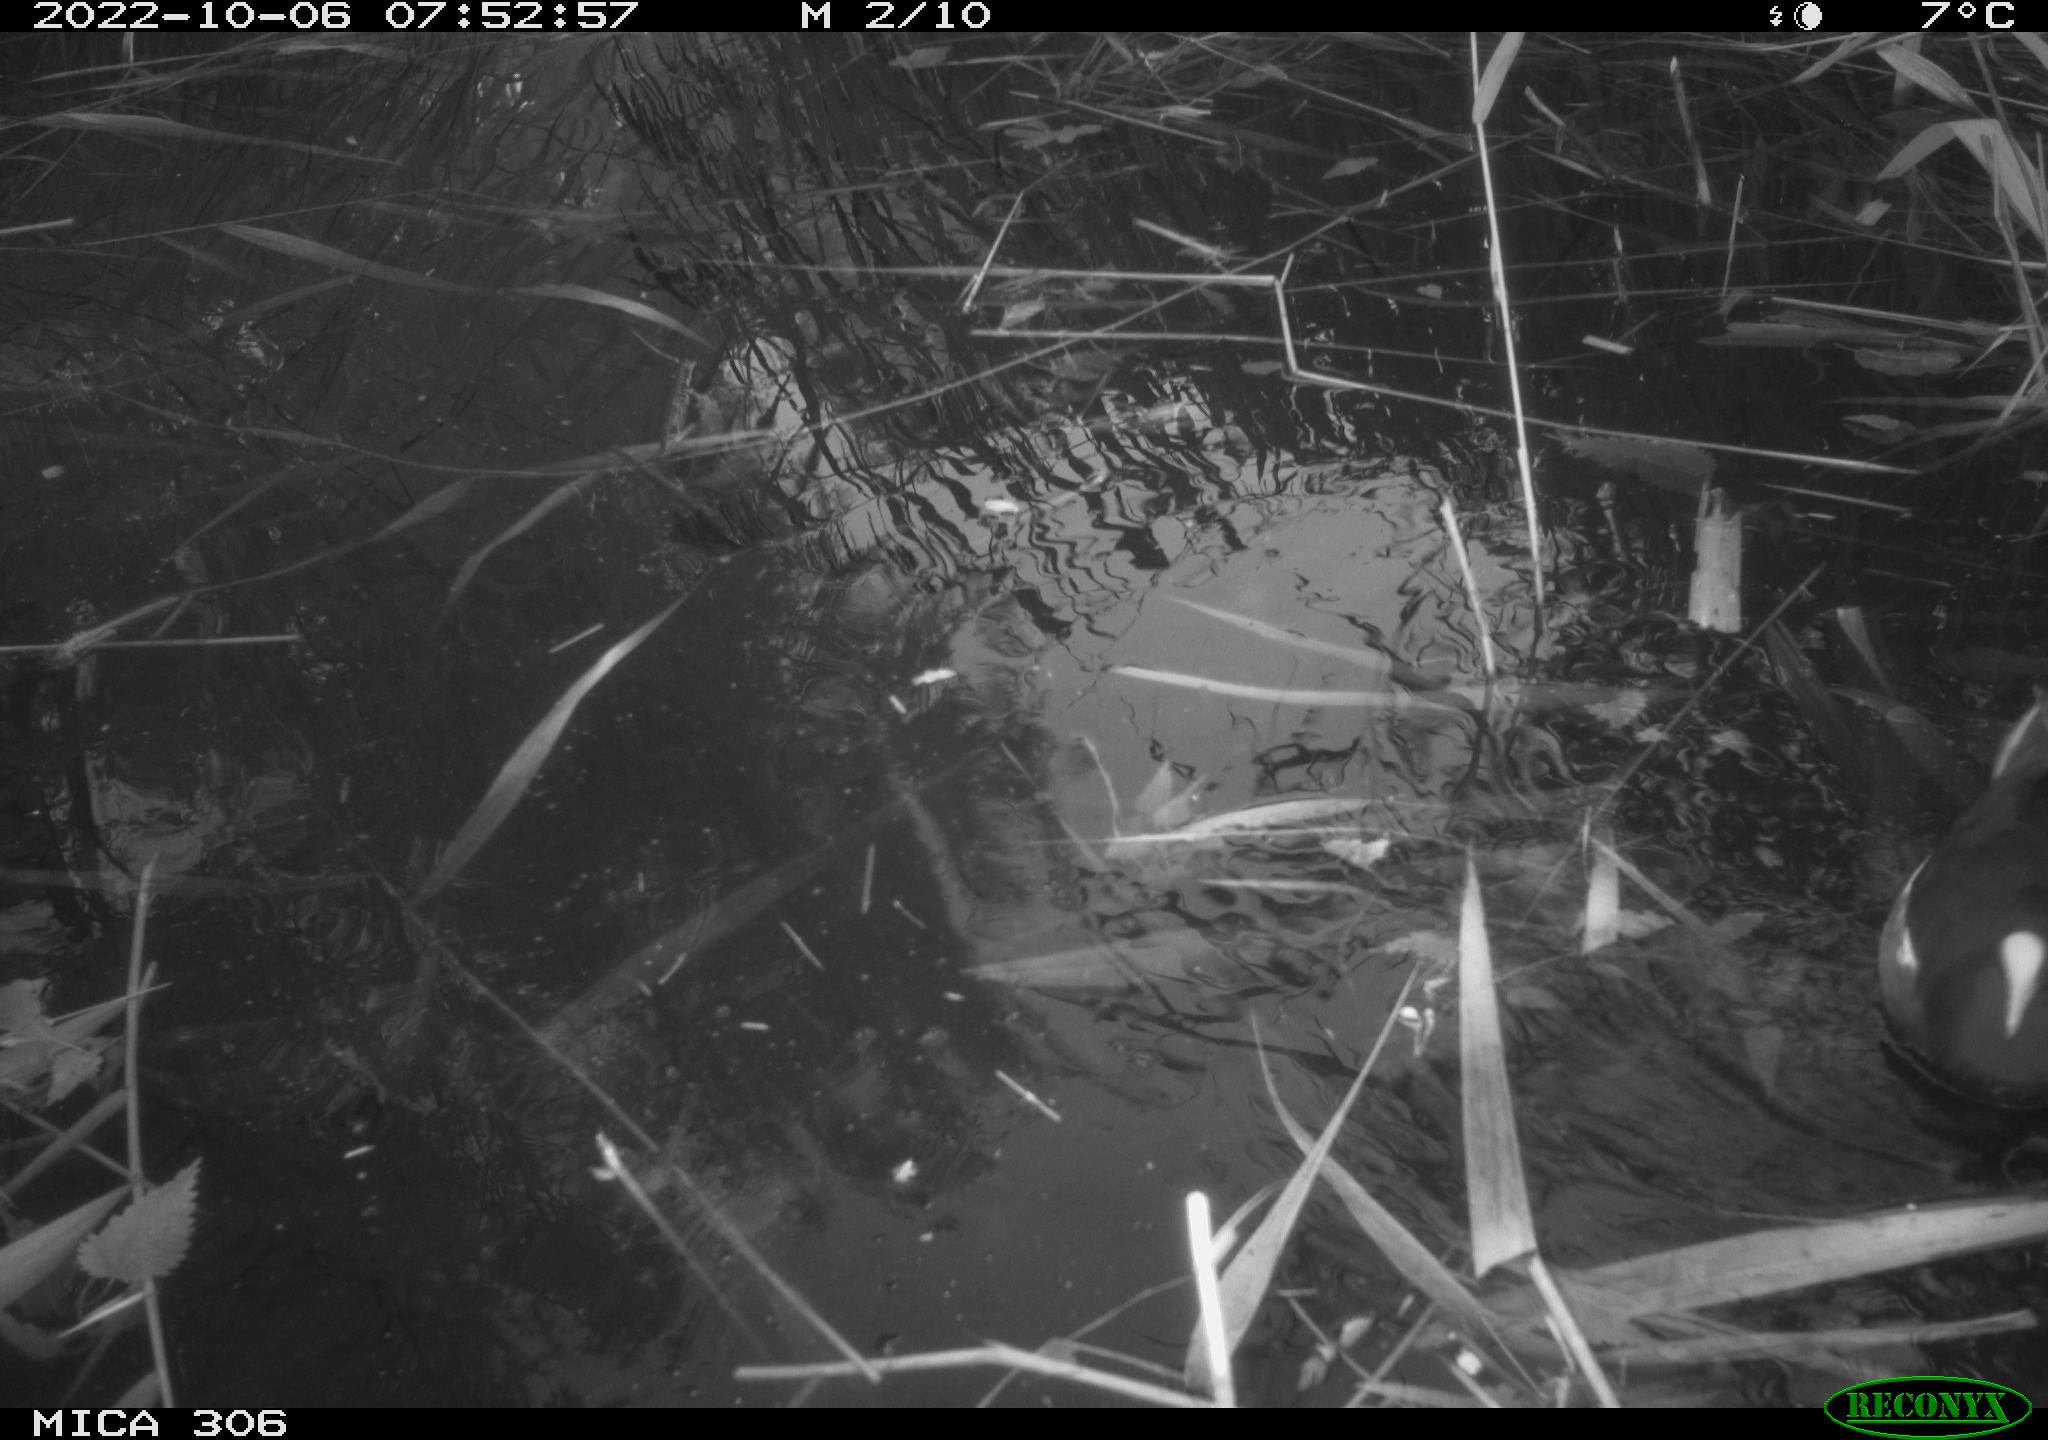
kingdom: Animalia
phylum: Chordata
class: Aves
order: Gruiformes
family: Rallidae
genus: Gallinula
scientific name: Gallinula chloropus
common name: Common moorhen
